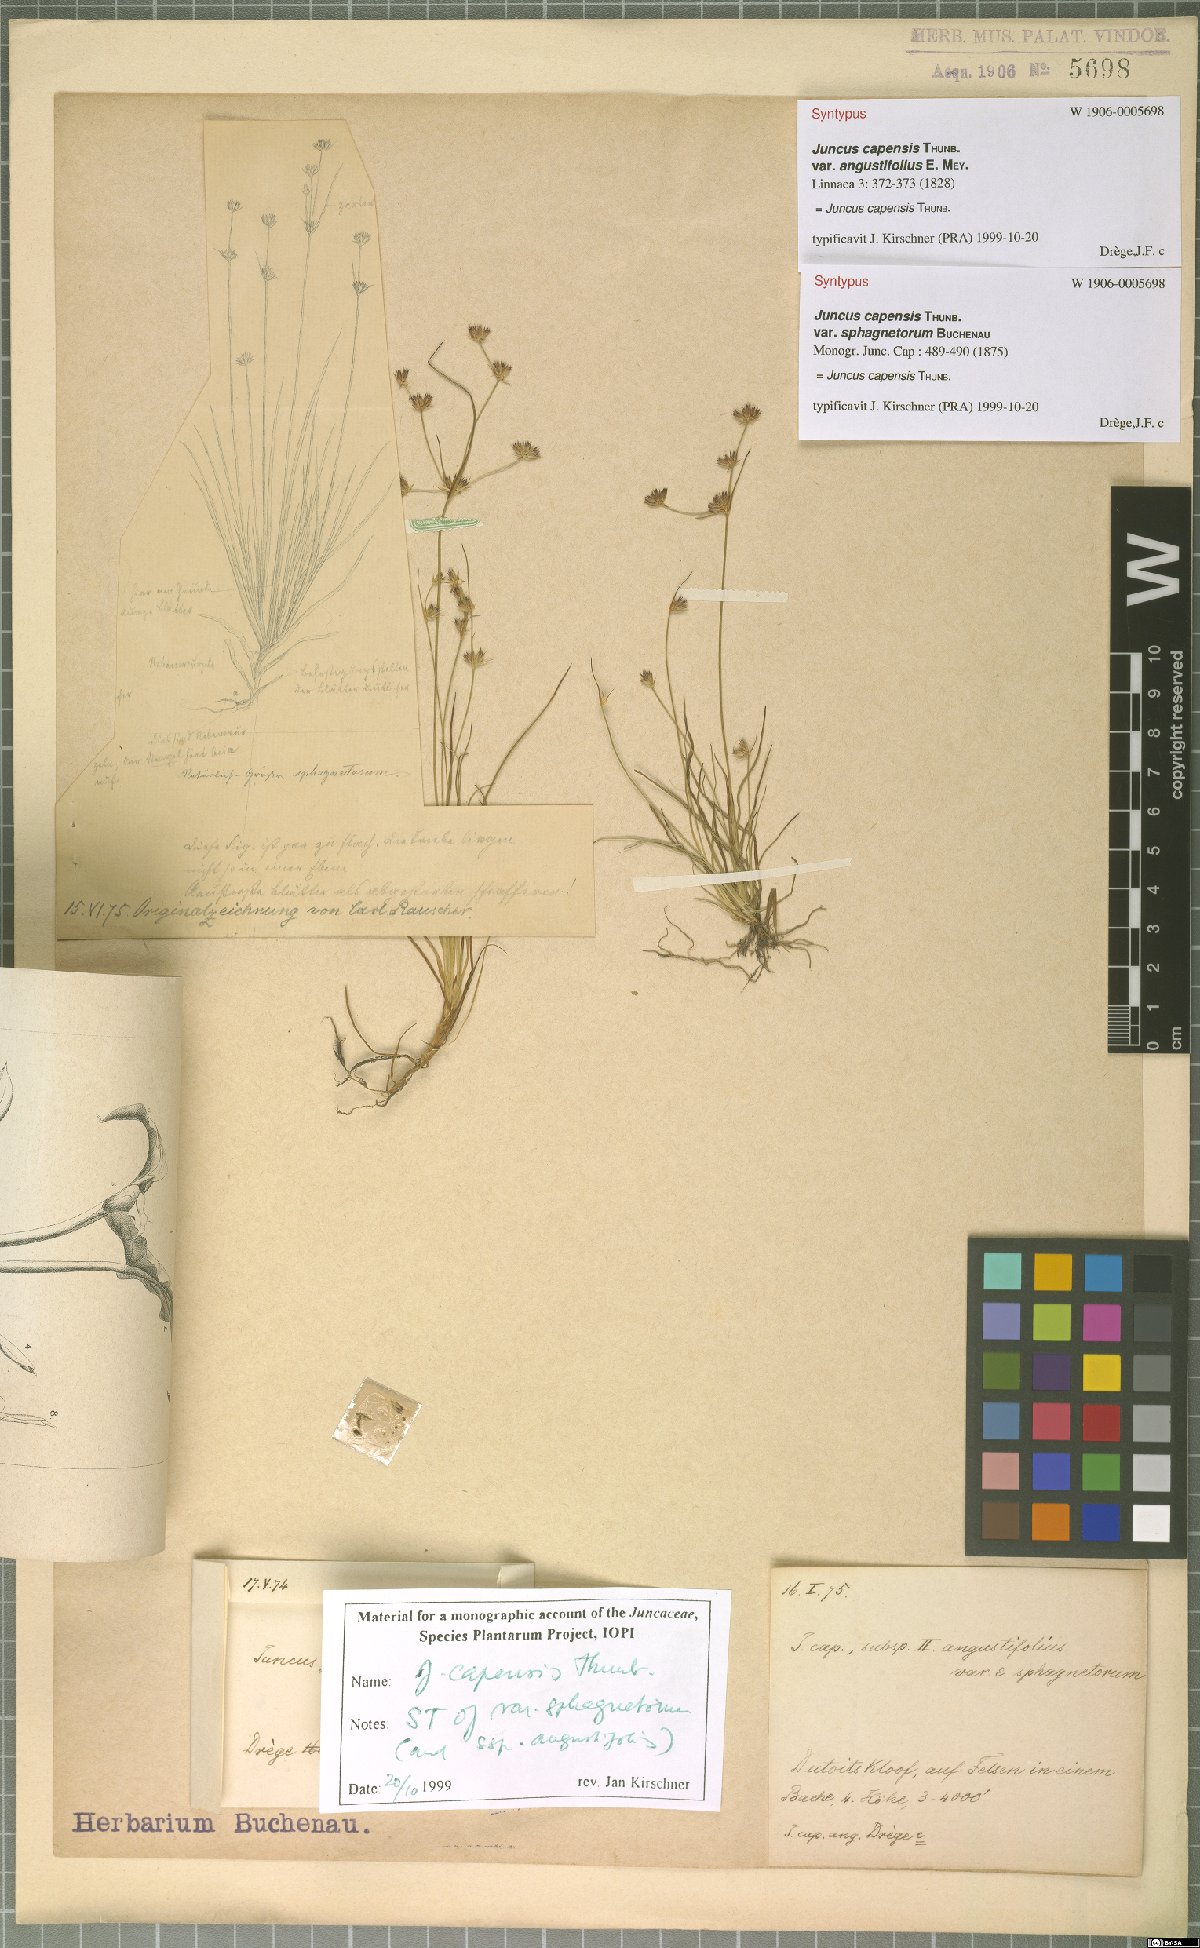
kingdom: Plantae
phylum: Tracheophyta
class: Liliopsida
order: Poales
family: Juncaceae
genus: Juncus
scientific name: Juncus capensis
